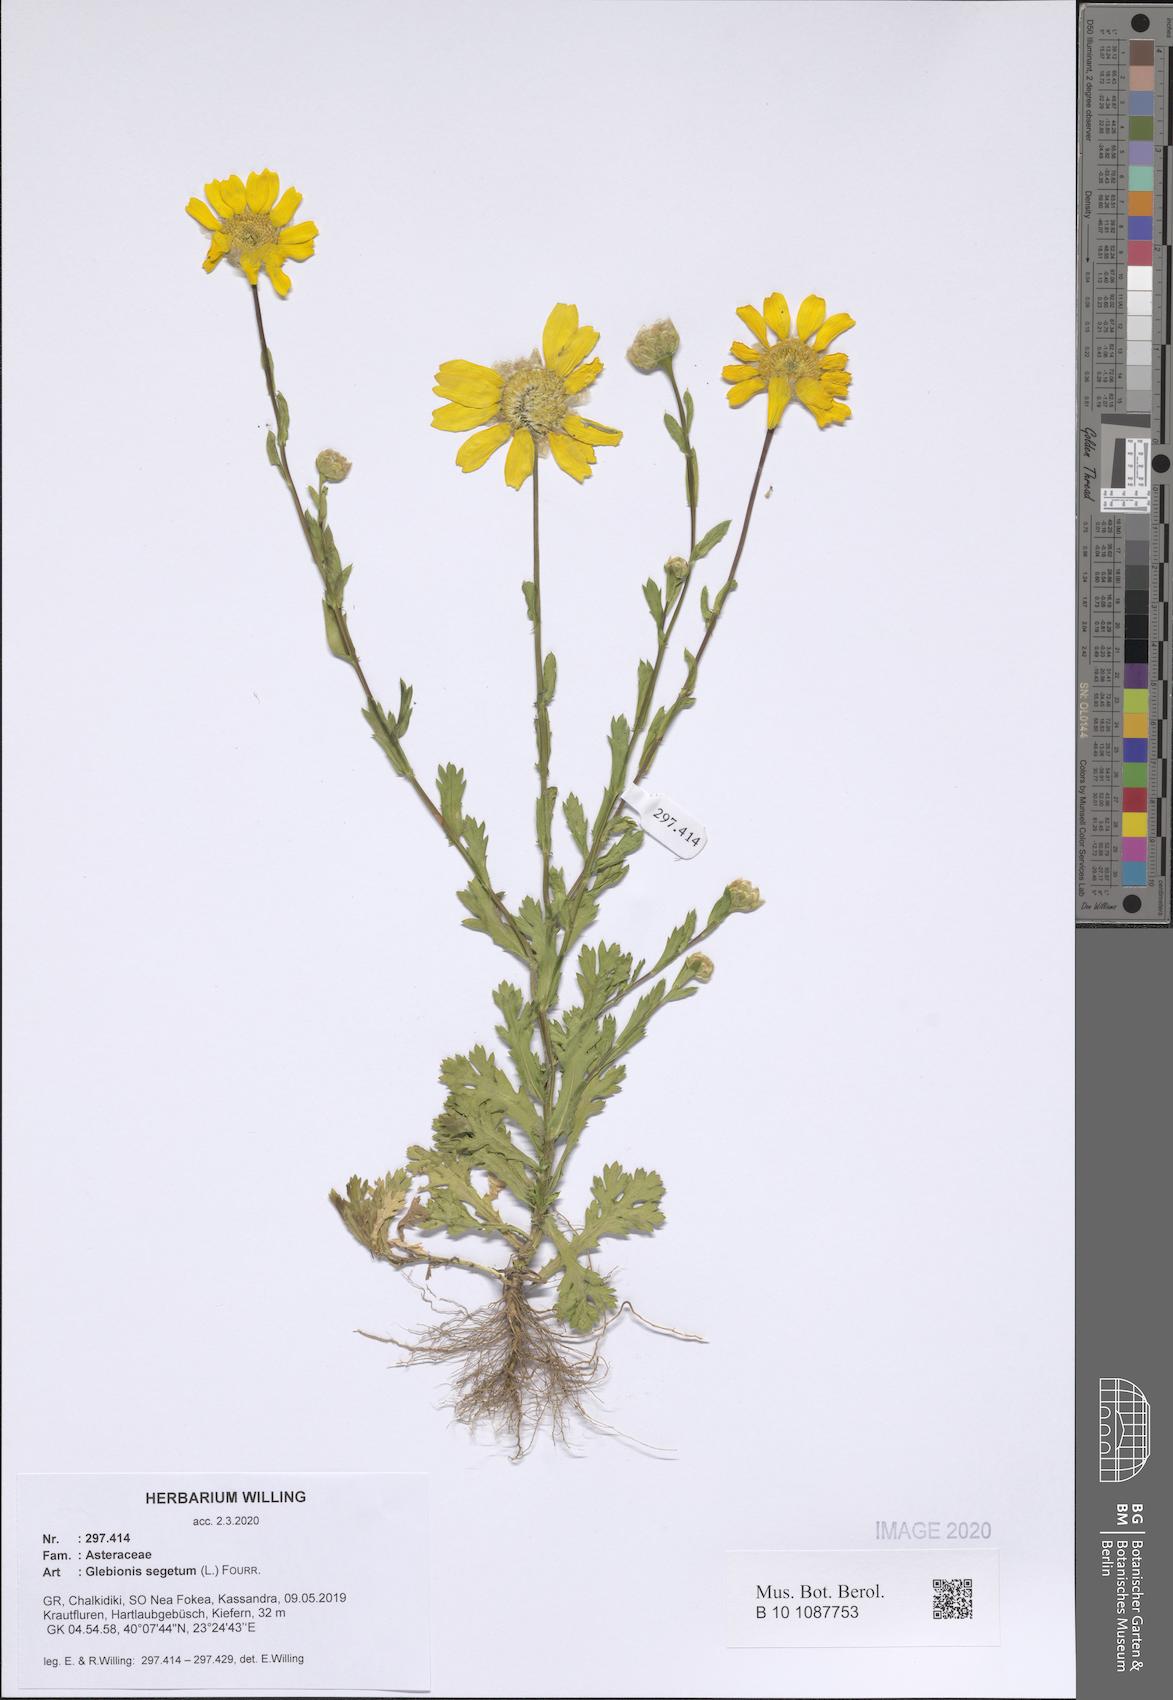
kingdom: Plantae
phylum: Tracheophyta
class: Magnoliopsida
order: Asterales
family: Asteraceae
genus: Glebionis
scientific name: Glebionis segetum
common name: Corndaisy
